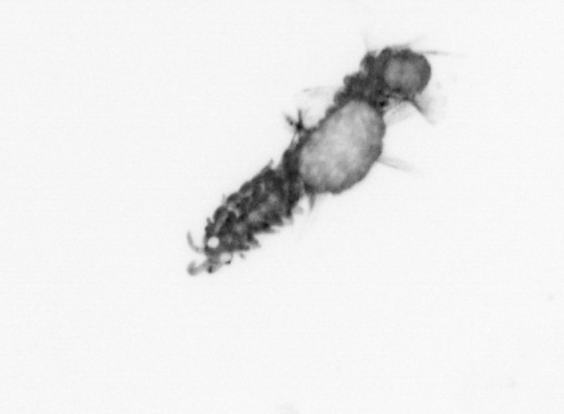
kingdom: Animalia
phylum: Annelida
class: Polychaeta
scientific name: Polychaeta
